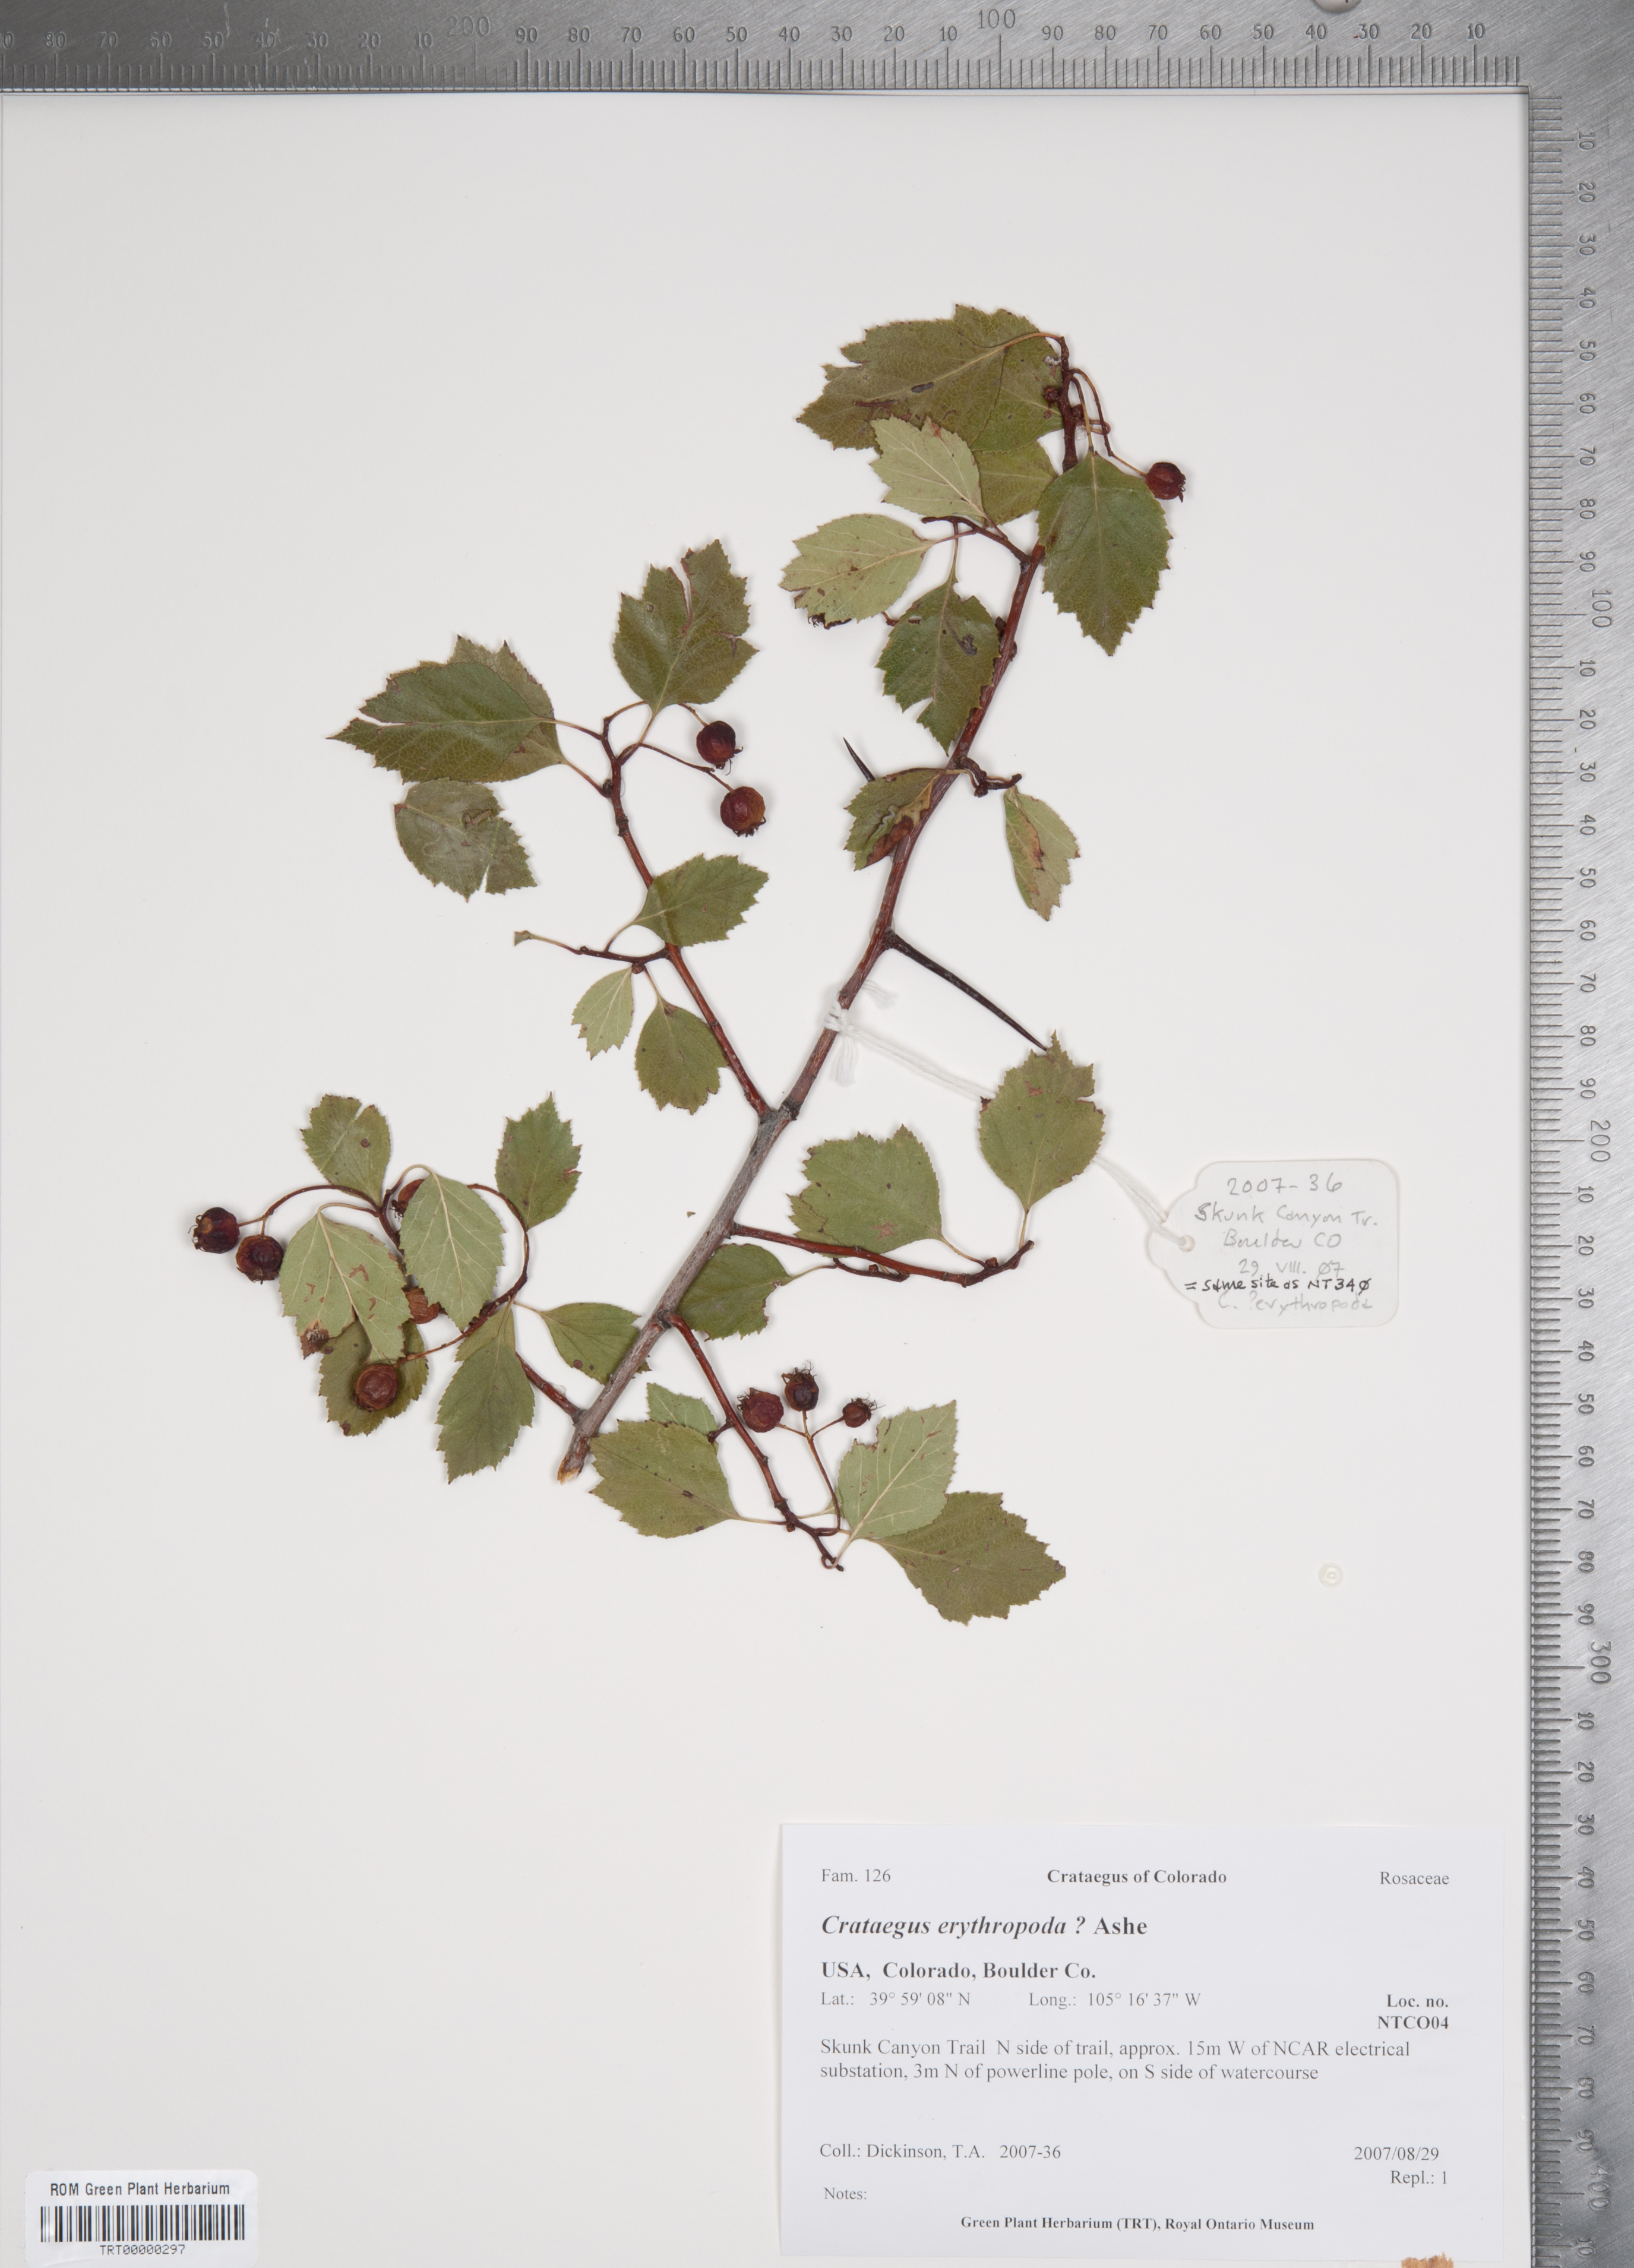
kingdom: Plantae
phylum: Tracheophyta
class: Magnoliopsida
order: Rosales
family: Rosaceae
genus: Crataegus
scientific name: Crataegus erythropoda
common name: Cerro hawthorn
